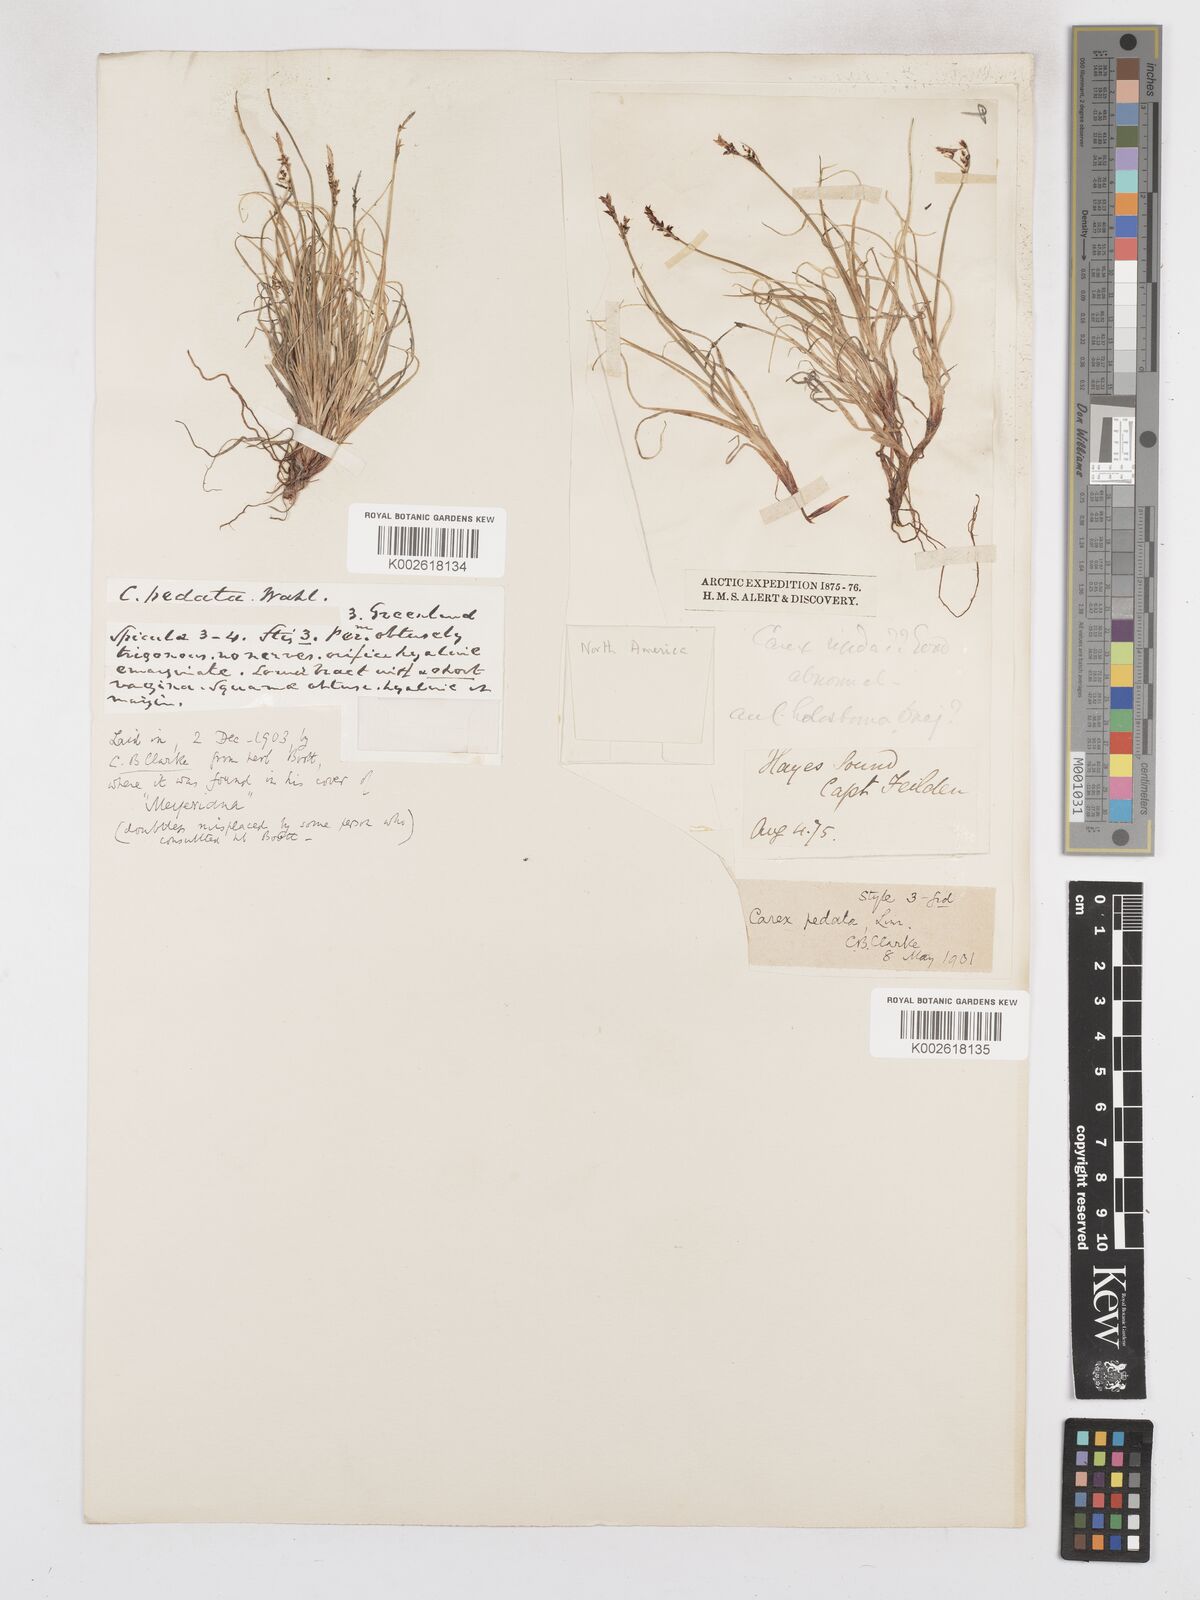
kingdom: Plantae
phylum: Tracheophyta
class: Liliopsida
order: Poales
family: Cyperaceae
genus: Carex
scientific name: Carex glacialis
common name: Newfoundland sedge
